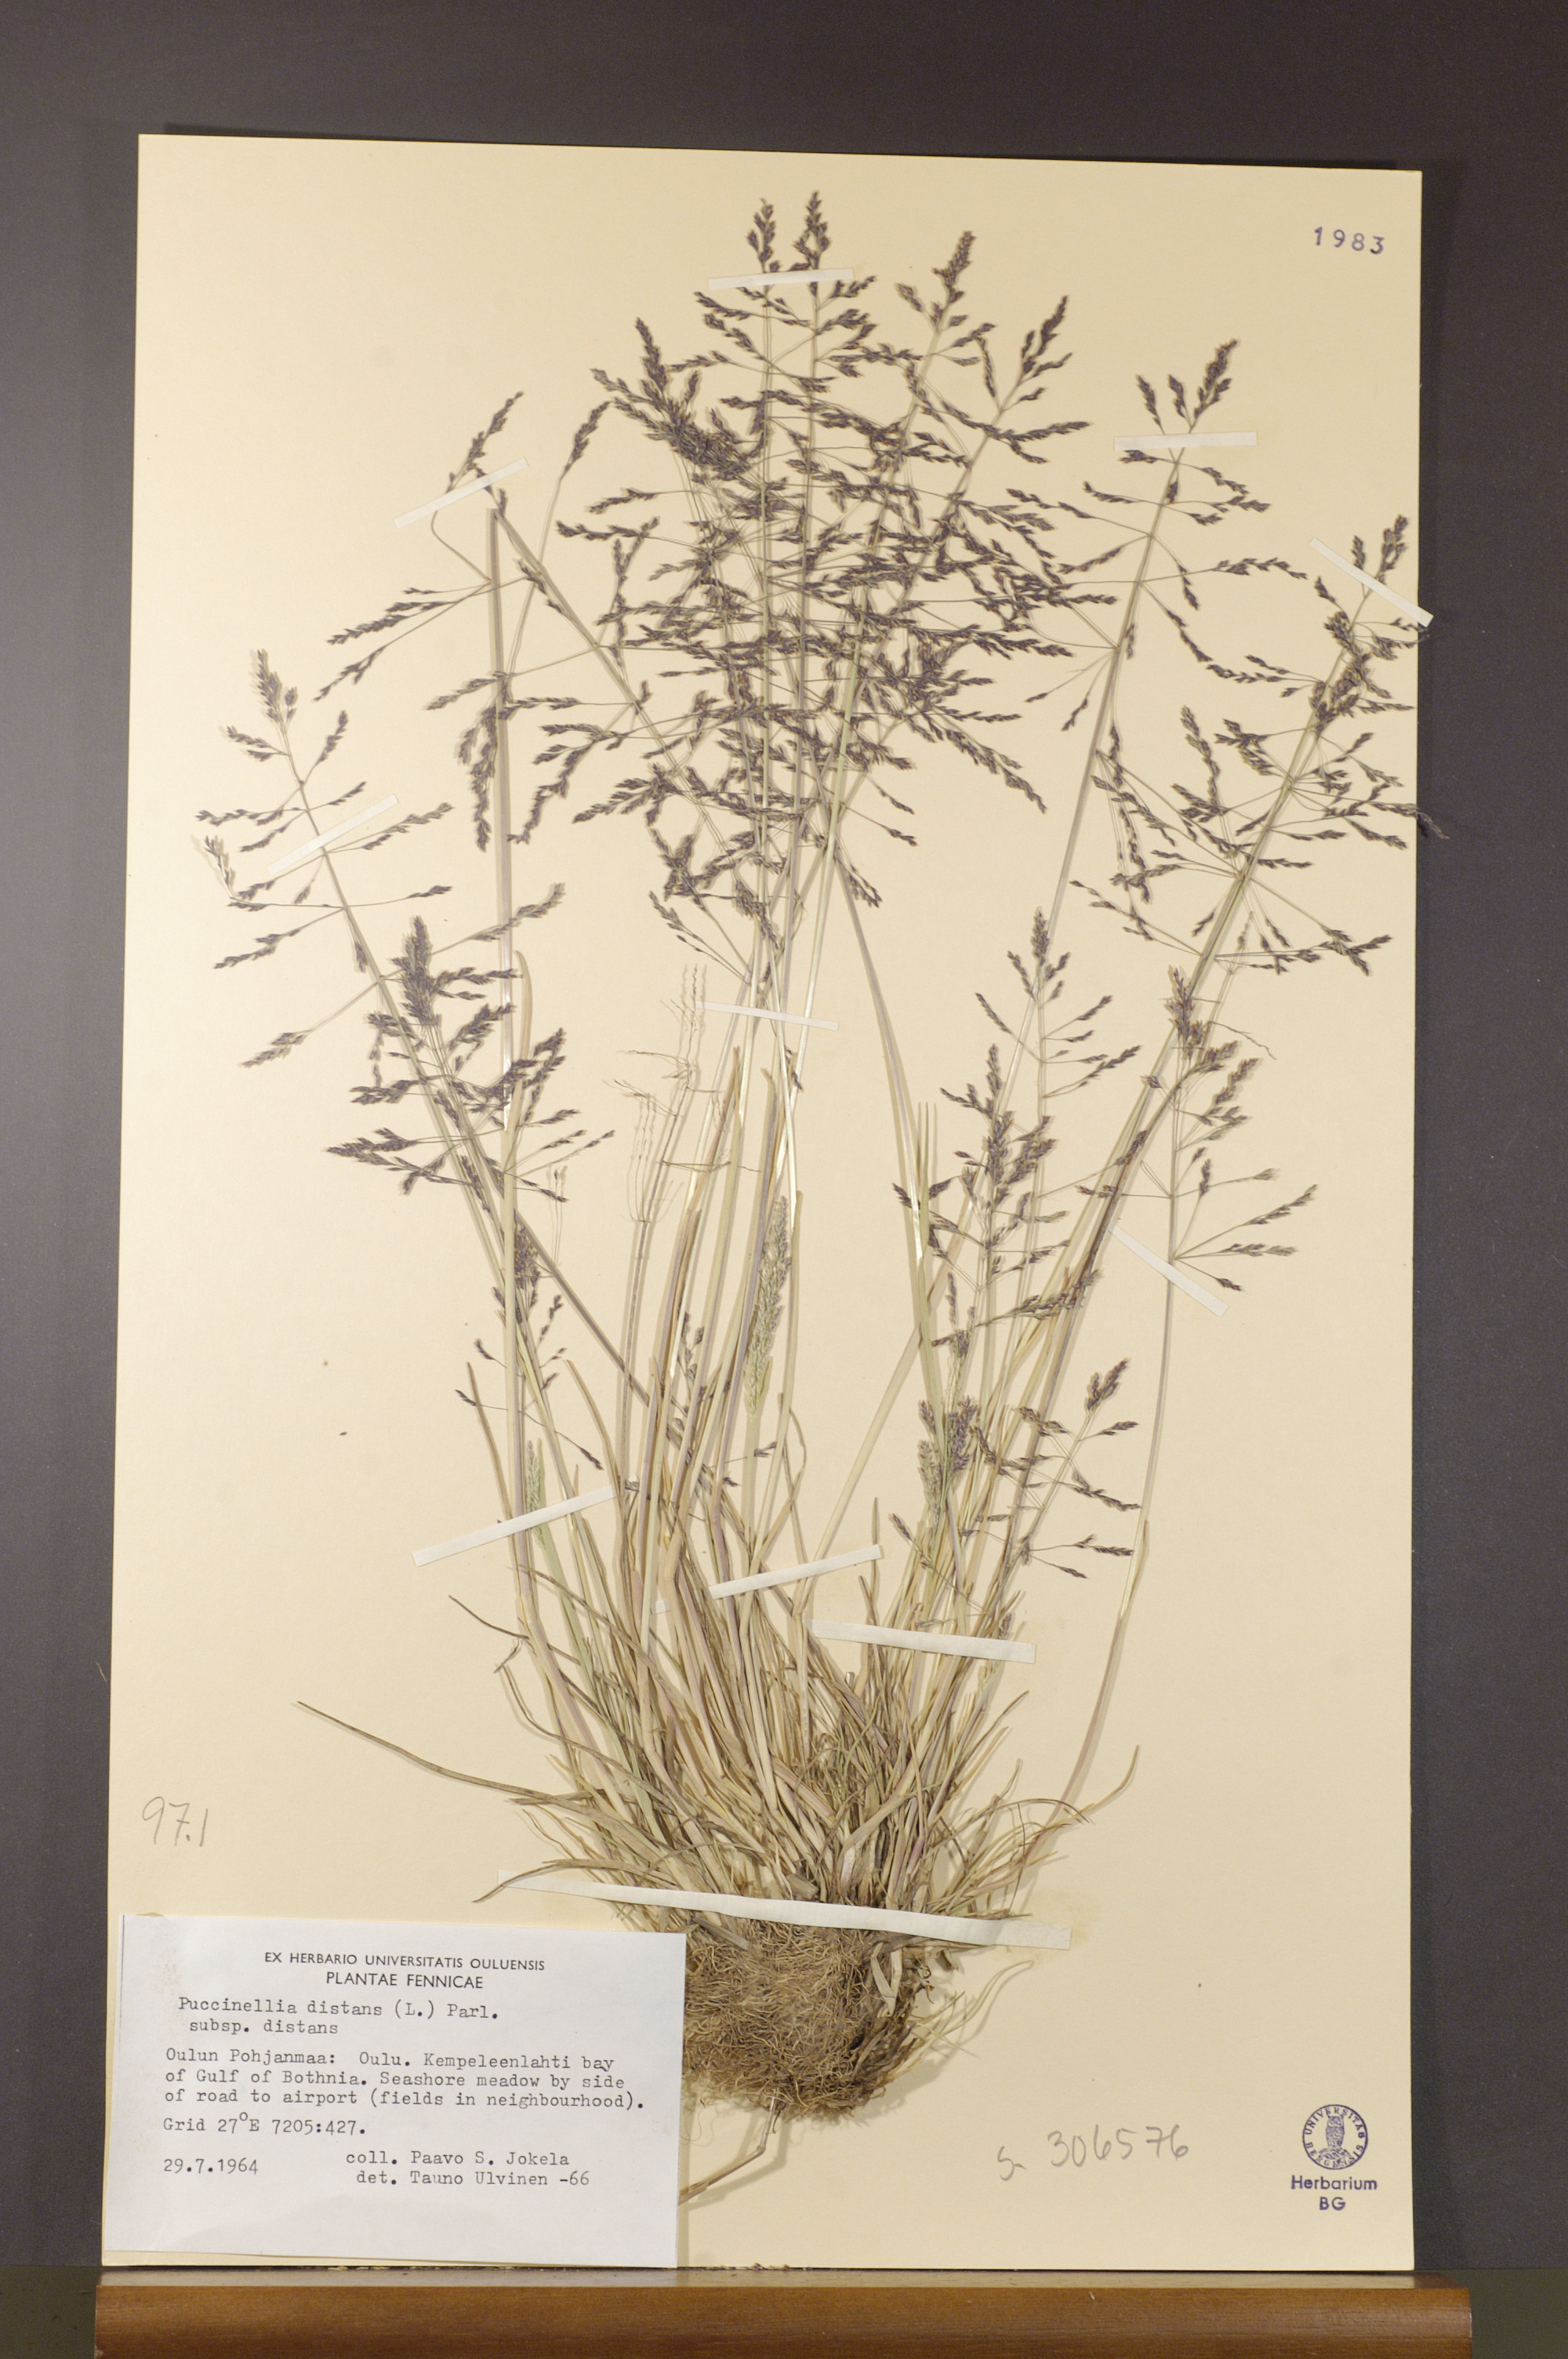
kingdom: Plantae
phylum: Tracheophyta
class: Liliopsida
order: Poales
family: Poaceae
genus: Puccinellia
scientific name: Puccinellia distans
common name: Weeping alkaligrass
